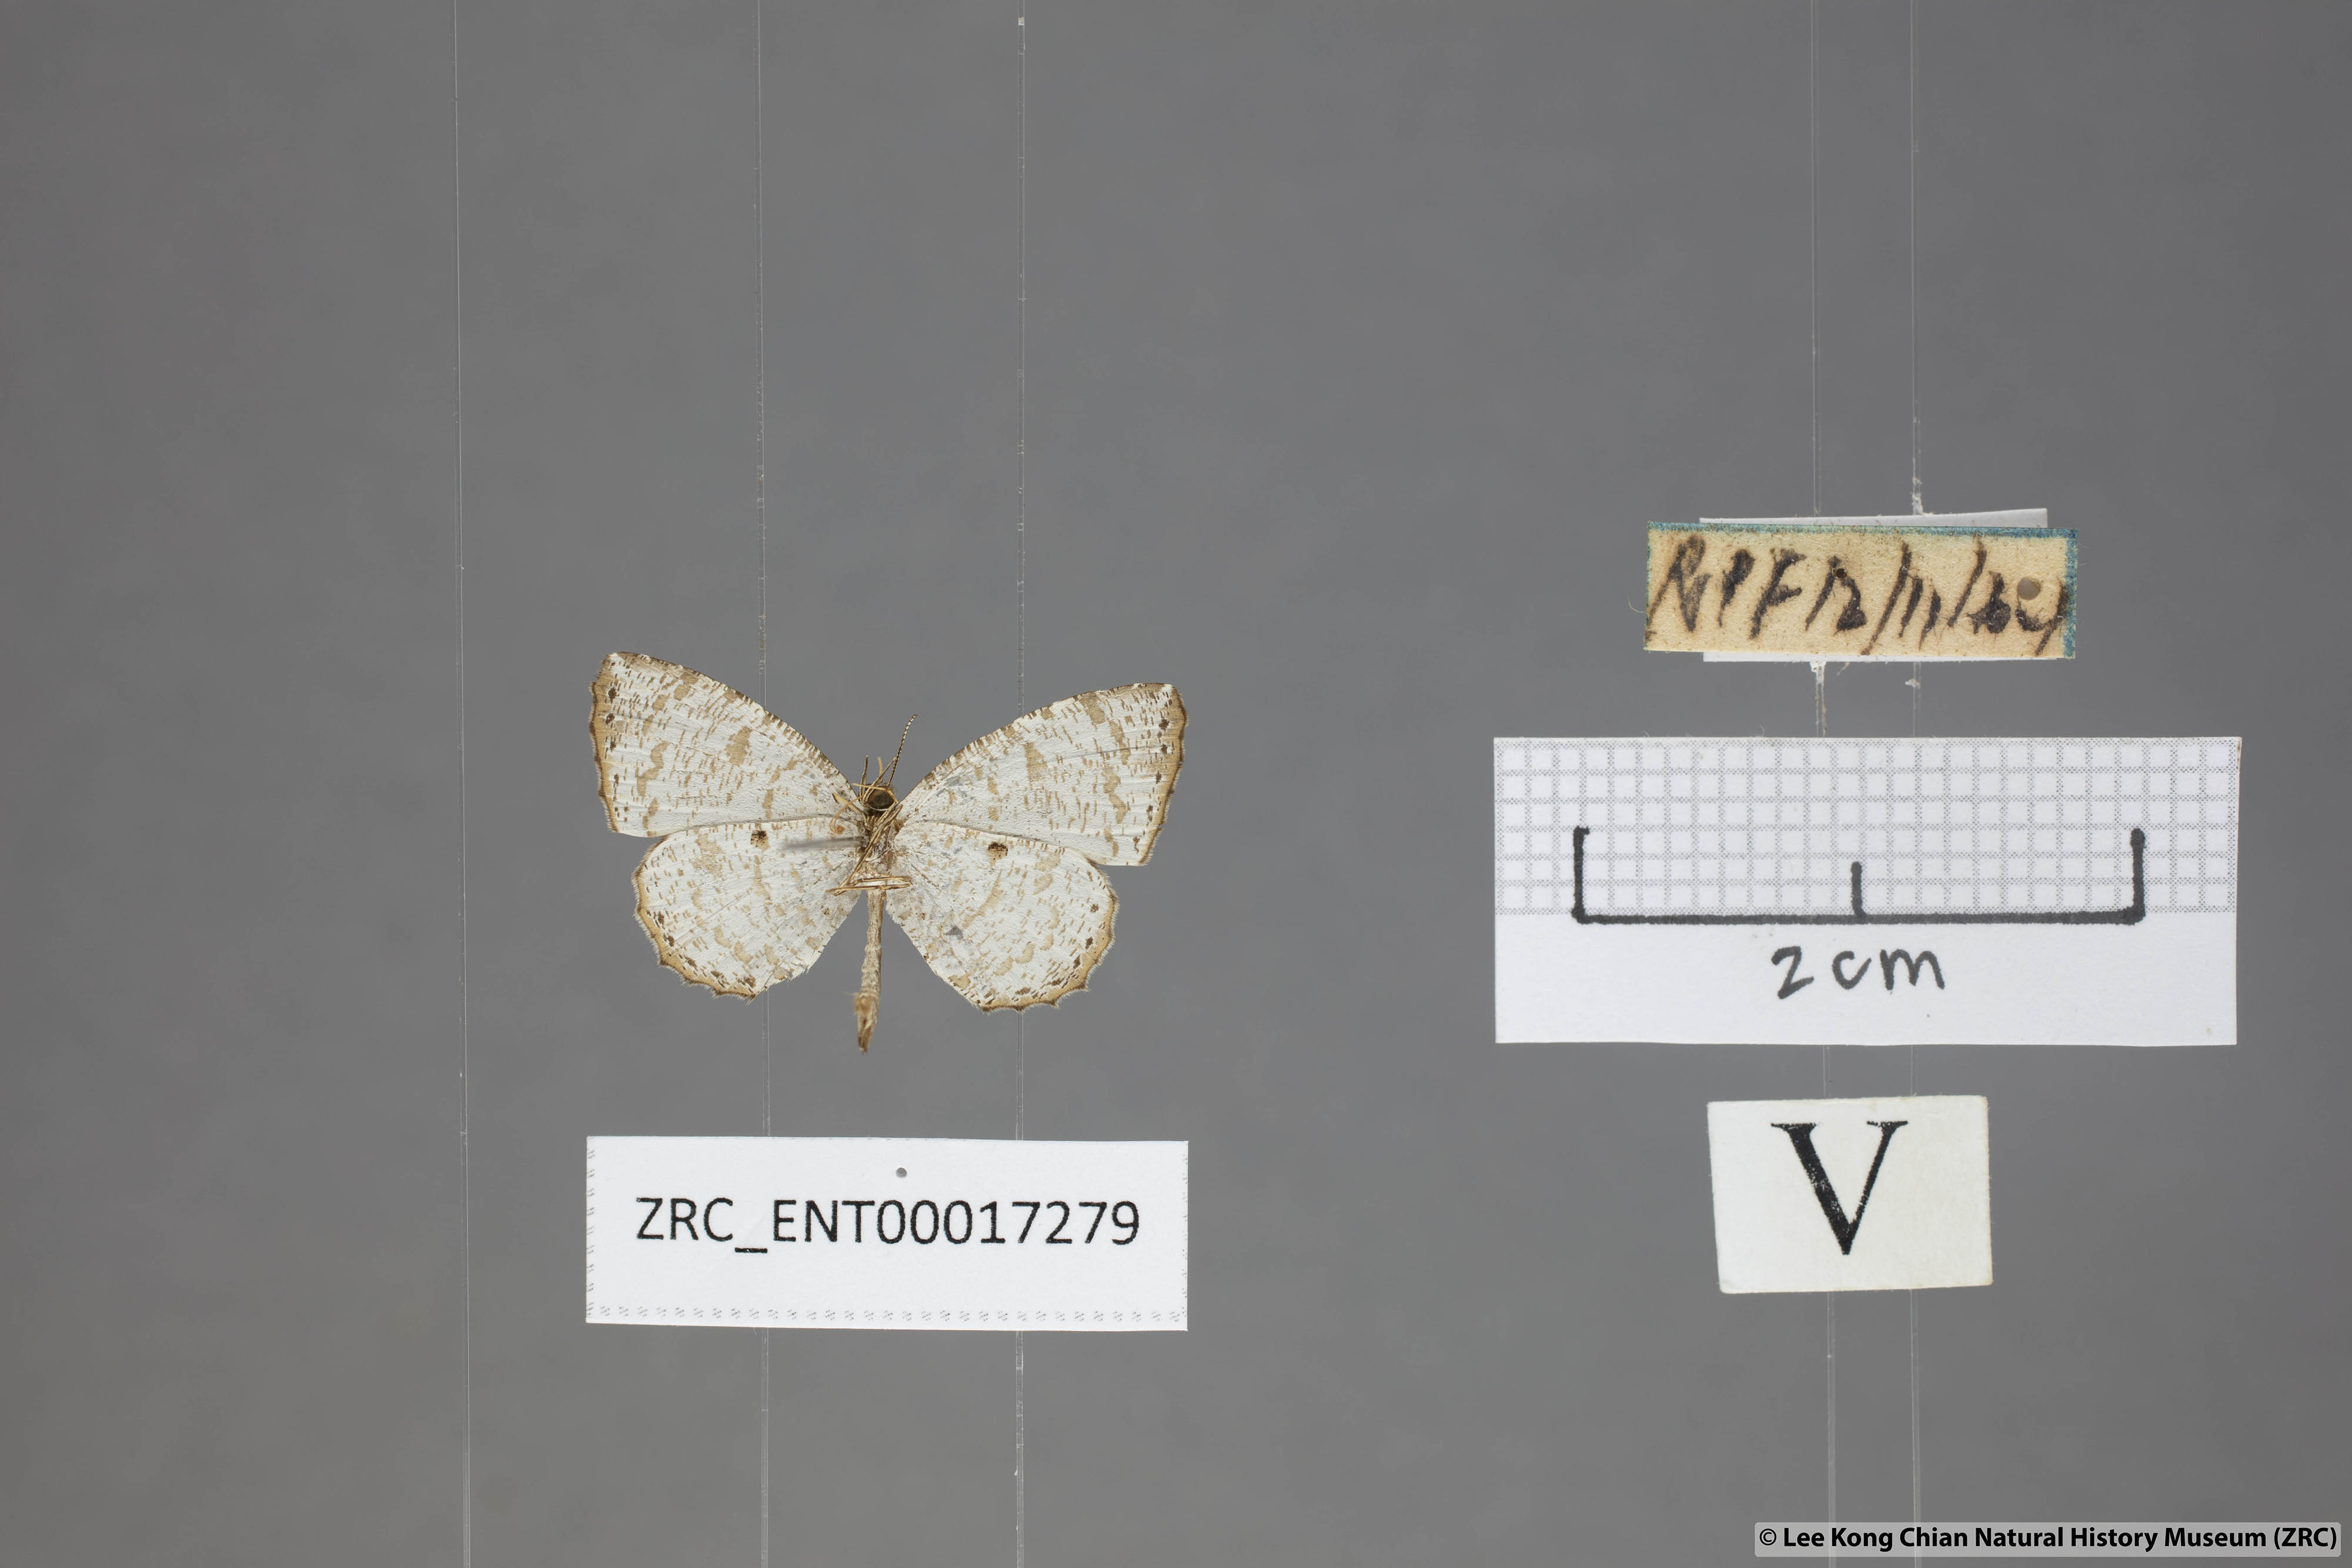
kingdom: Animalia
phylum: Arthropoda
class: Insecta
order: Lepidoptera
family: Lycaenidae
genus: Allotinus
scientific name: Allotinus substrigosa
